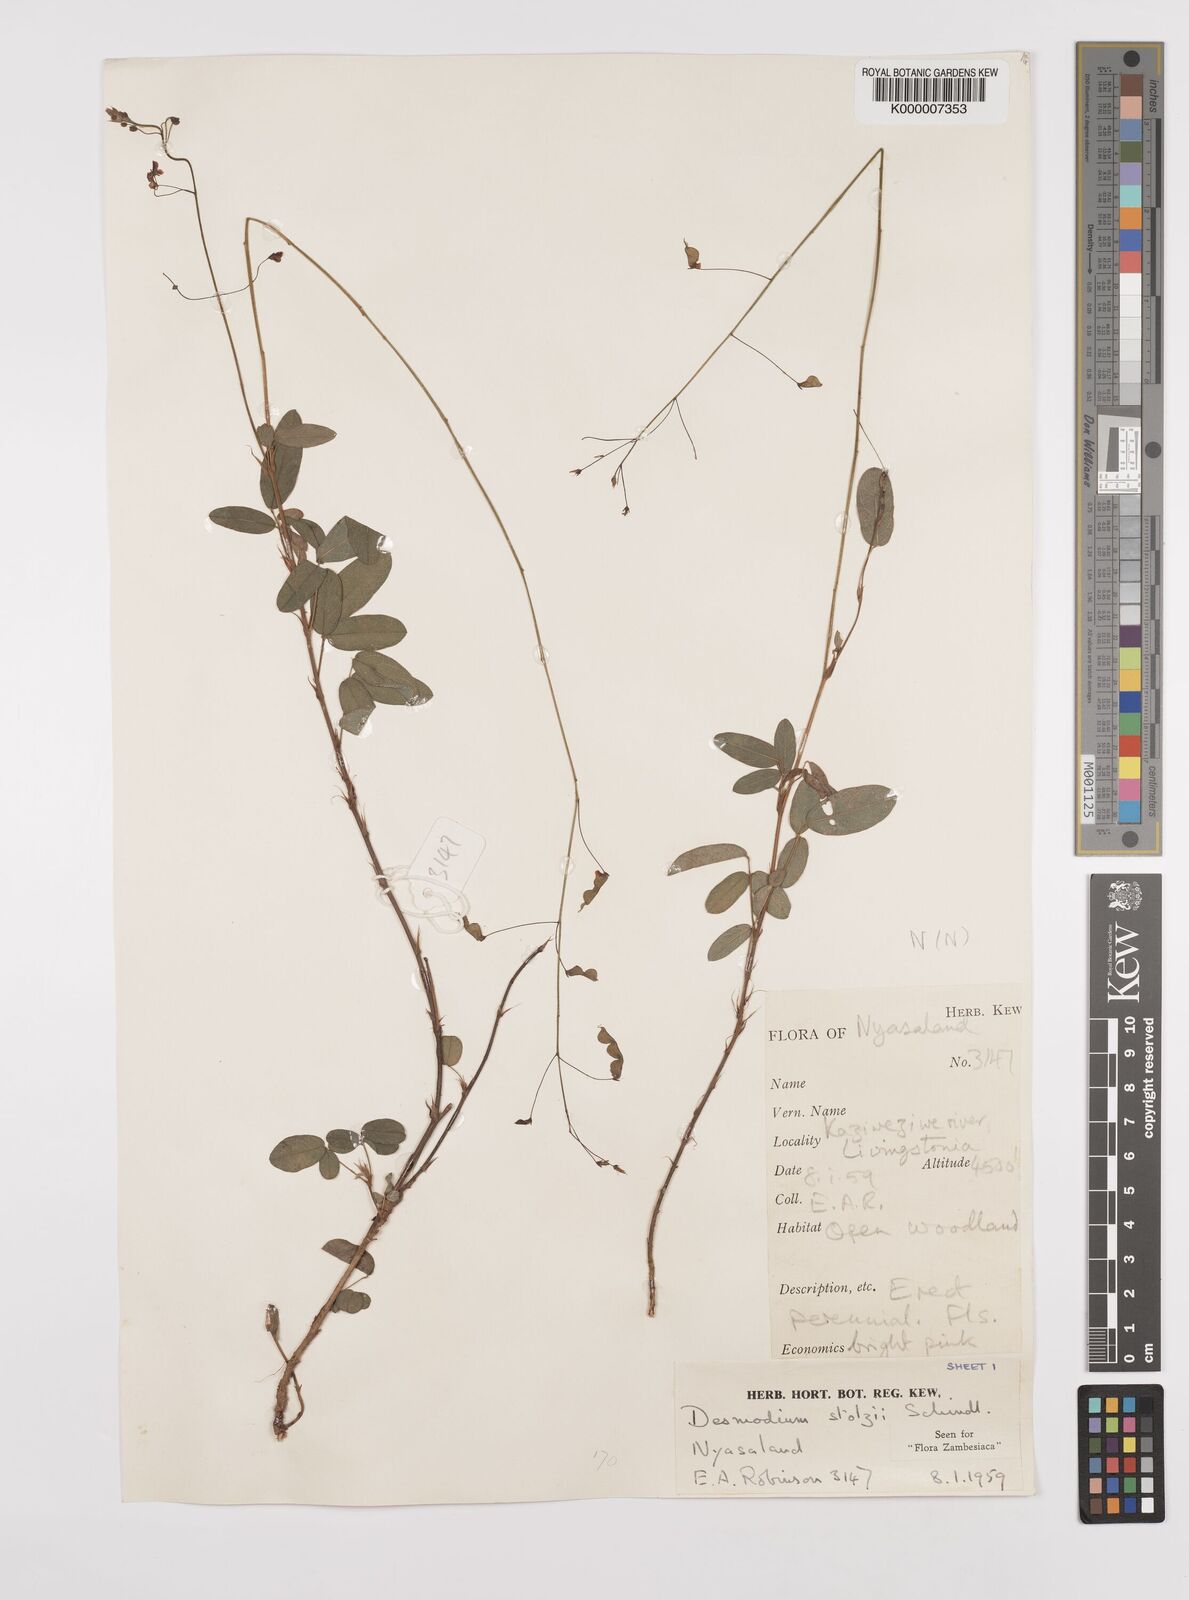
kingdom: Plantae
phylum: Tracheophyta
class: Magnoliopsida
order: Fabales
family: Fabaceae
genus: Grona
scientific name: Grona stolzii
